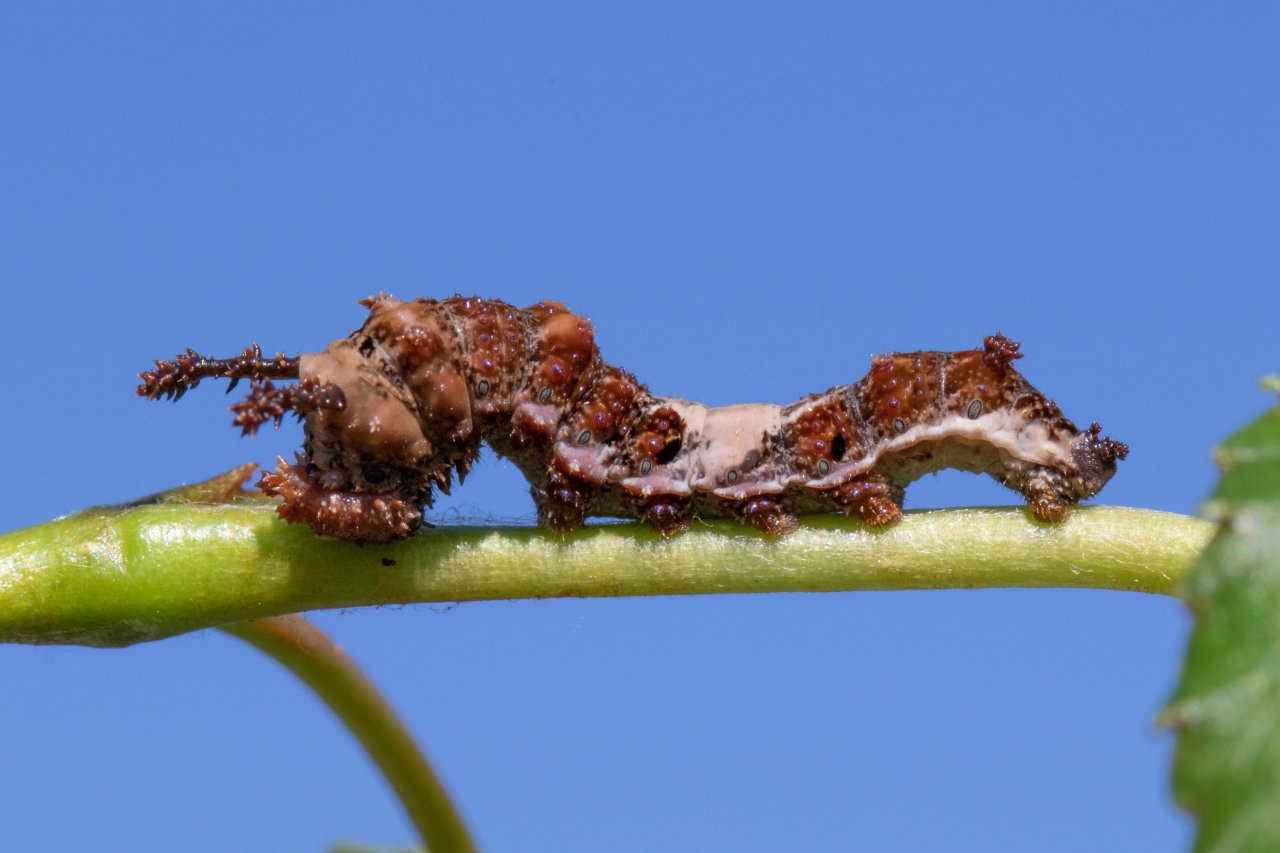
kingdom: Animalia
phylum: Arthropoda
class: Insecta
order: Lepidoptera
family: Nymphalidae
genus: Limenitis
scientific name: Limenitis arthemis
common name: Red-spotted Admiral
